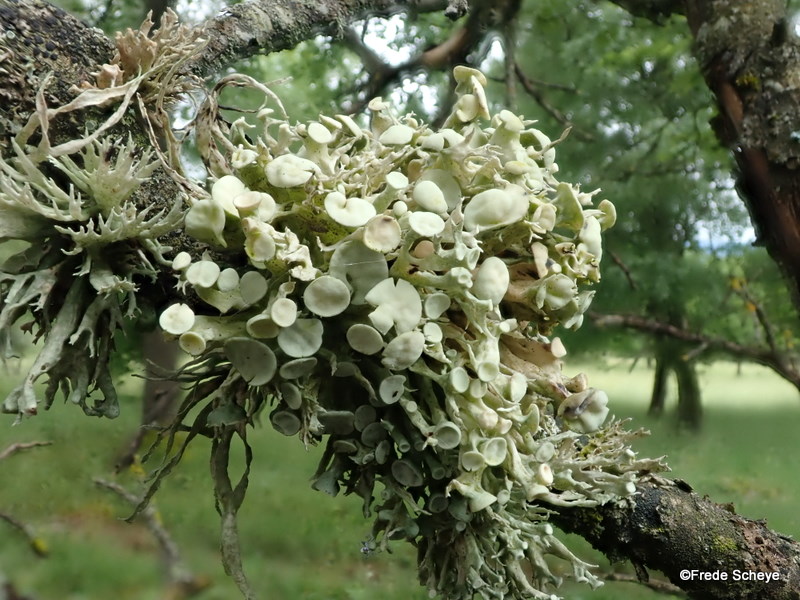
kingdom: Fungi
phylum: Ascomycota
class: Lecanoromycetes
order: Lecanorales
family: Ramalinaceae
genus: Ramalina
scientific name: Ramalina fastigiata
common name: tue-grenlav
